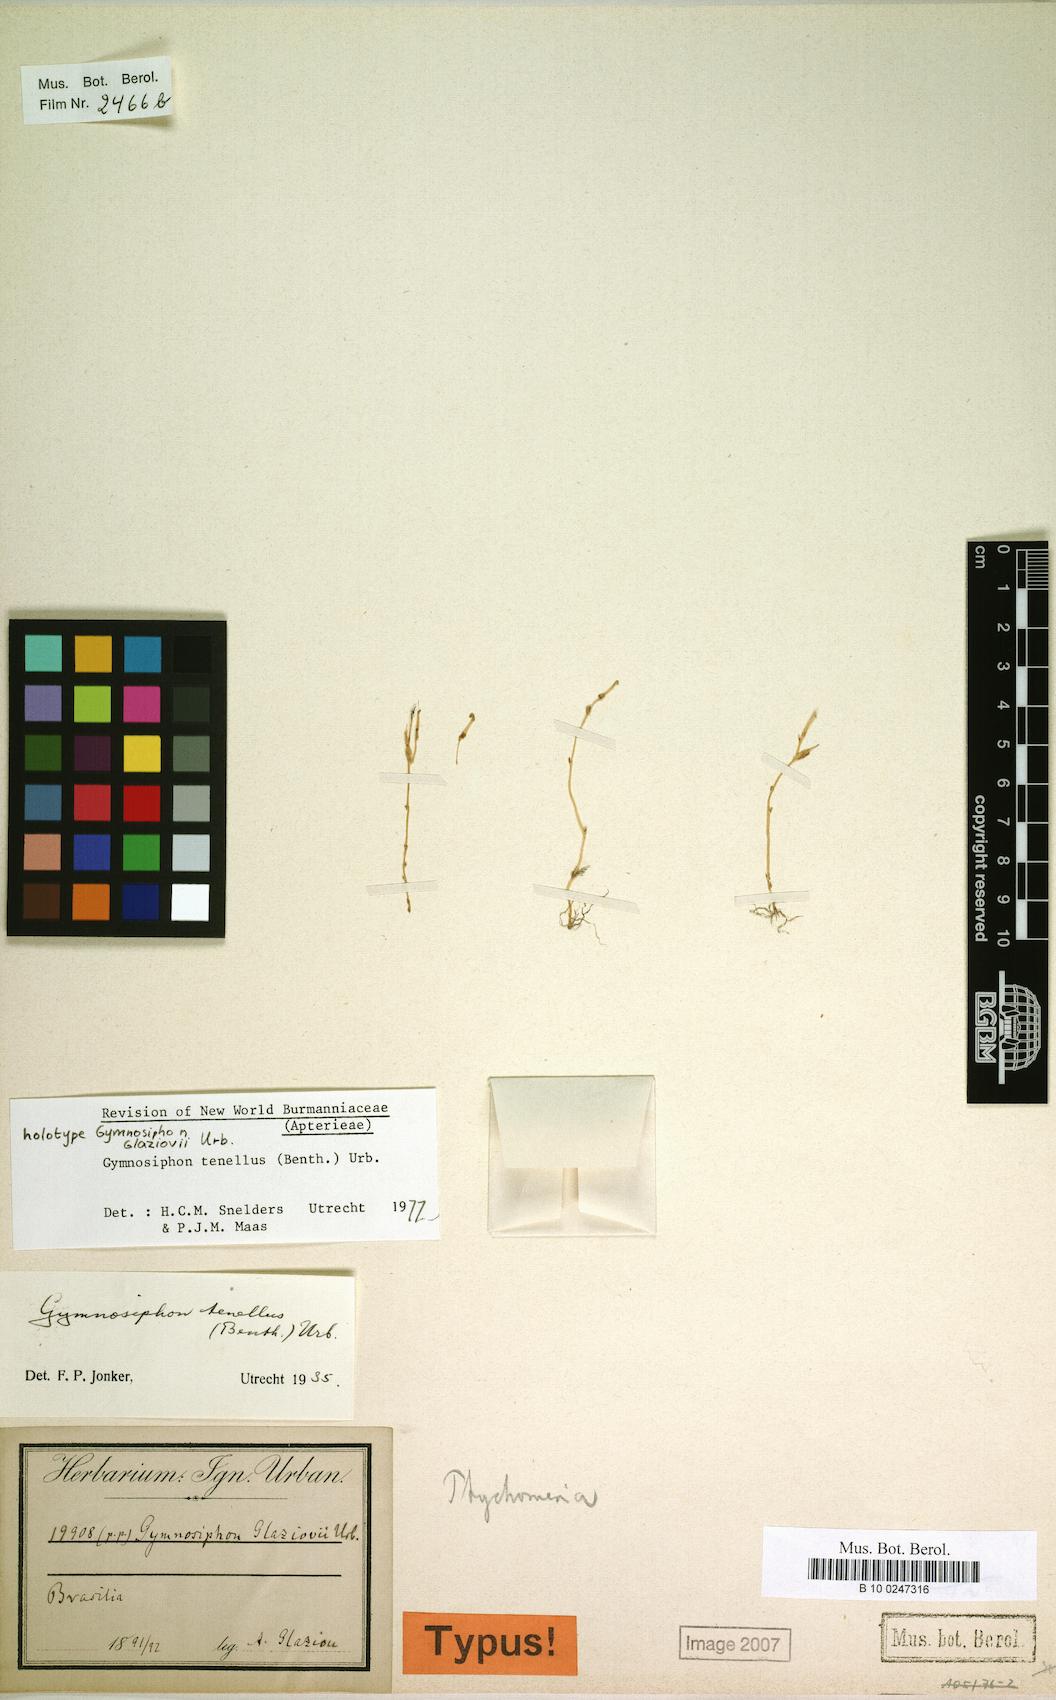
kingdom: Plantae
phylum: Tracheophyta
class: Liliopsida
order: Dioscoreales
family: Burmanniaceae
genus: Gymnosiphon
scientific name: Gymnosiphon tenellus
